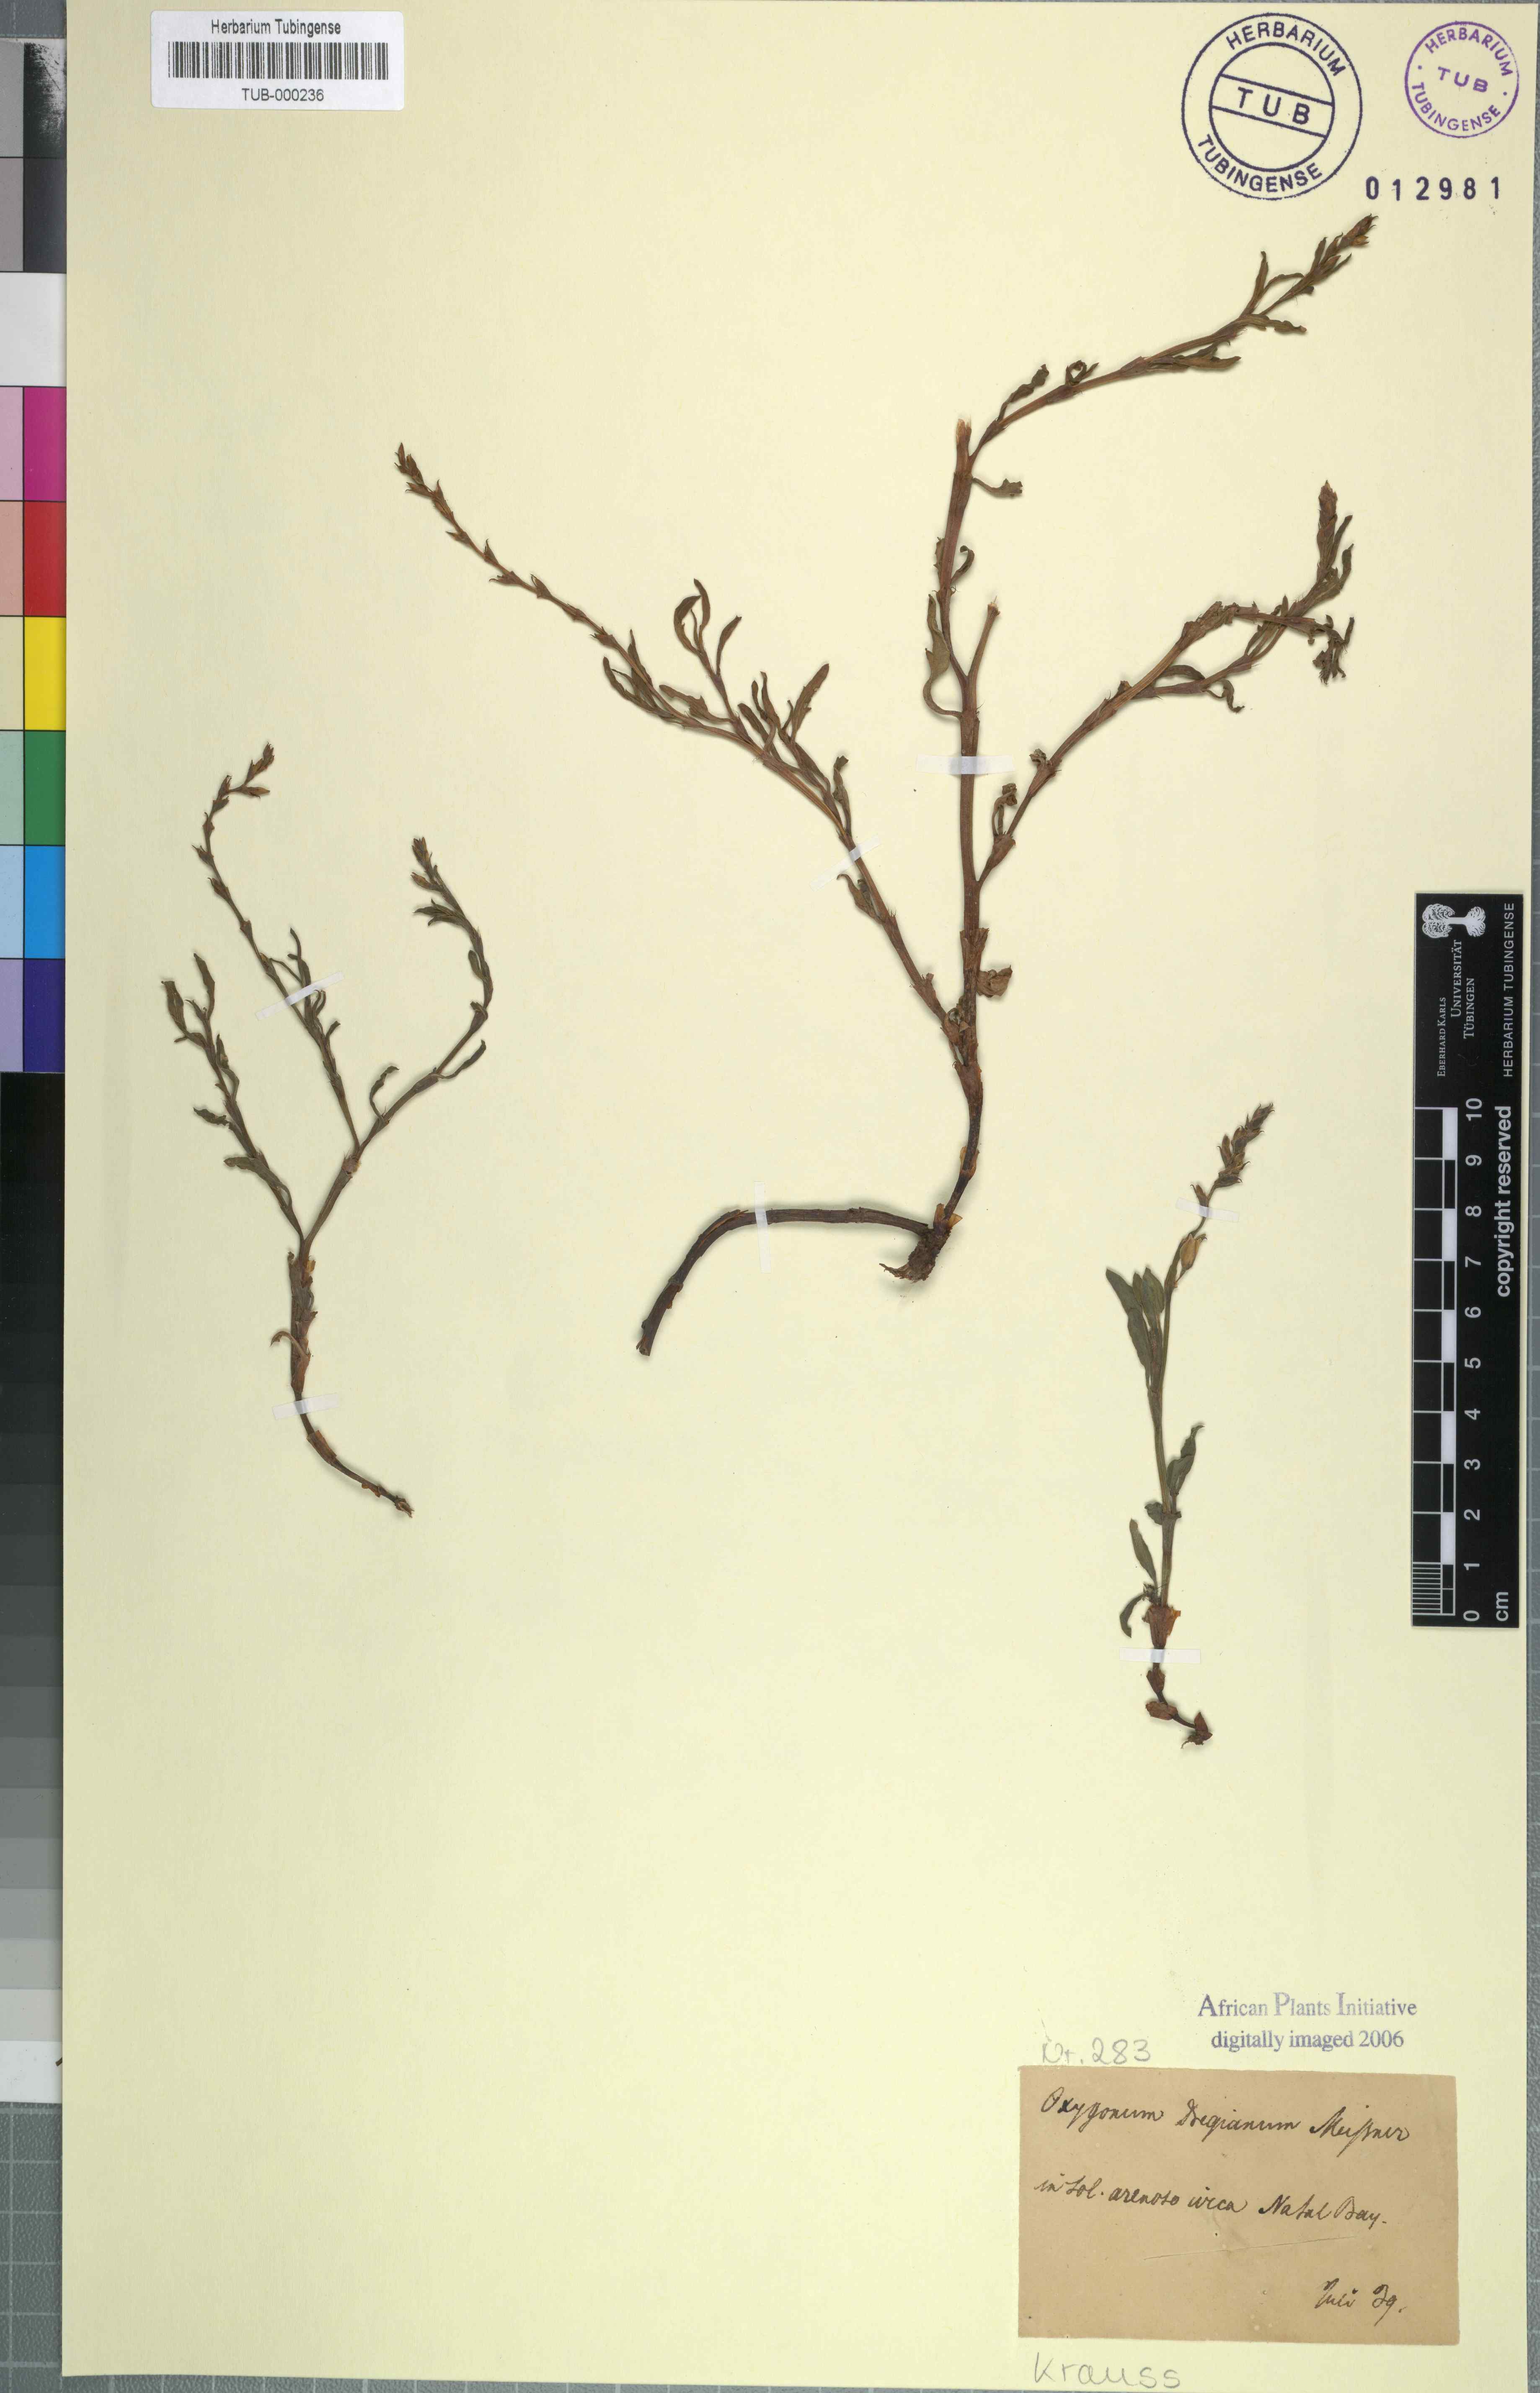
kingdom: Plantae
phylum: Tracheophyta
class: Magnoliopsida
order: Caryophyllales
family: Polygonaceae
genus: Oxygonum
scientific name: Oxygonum dregeanum
